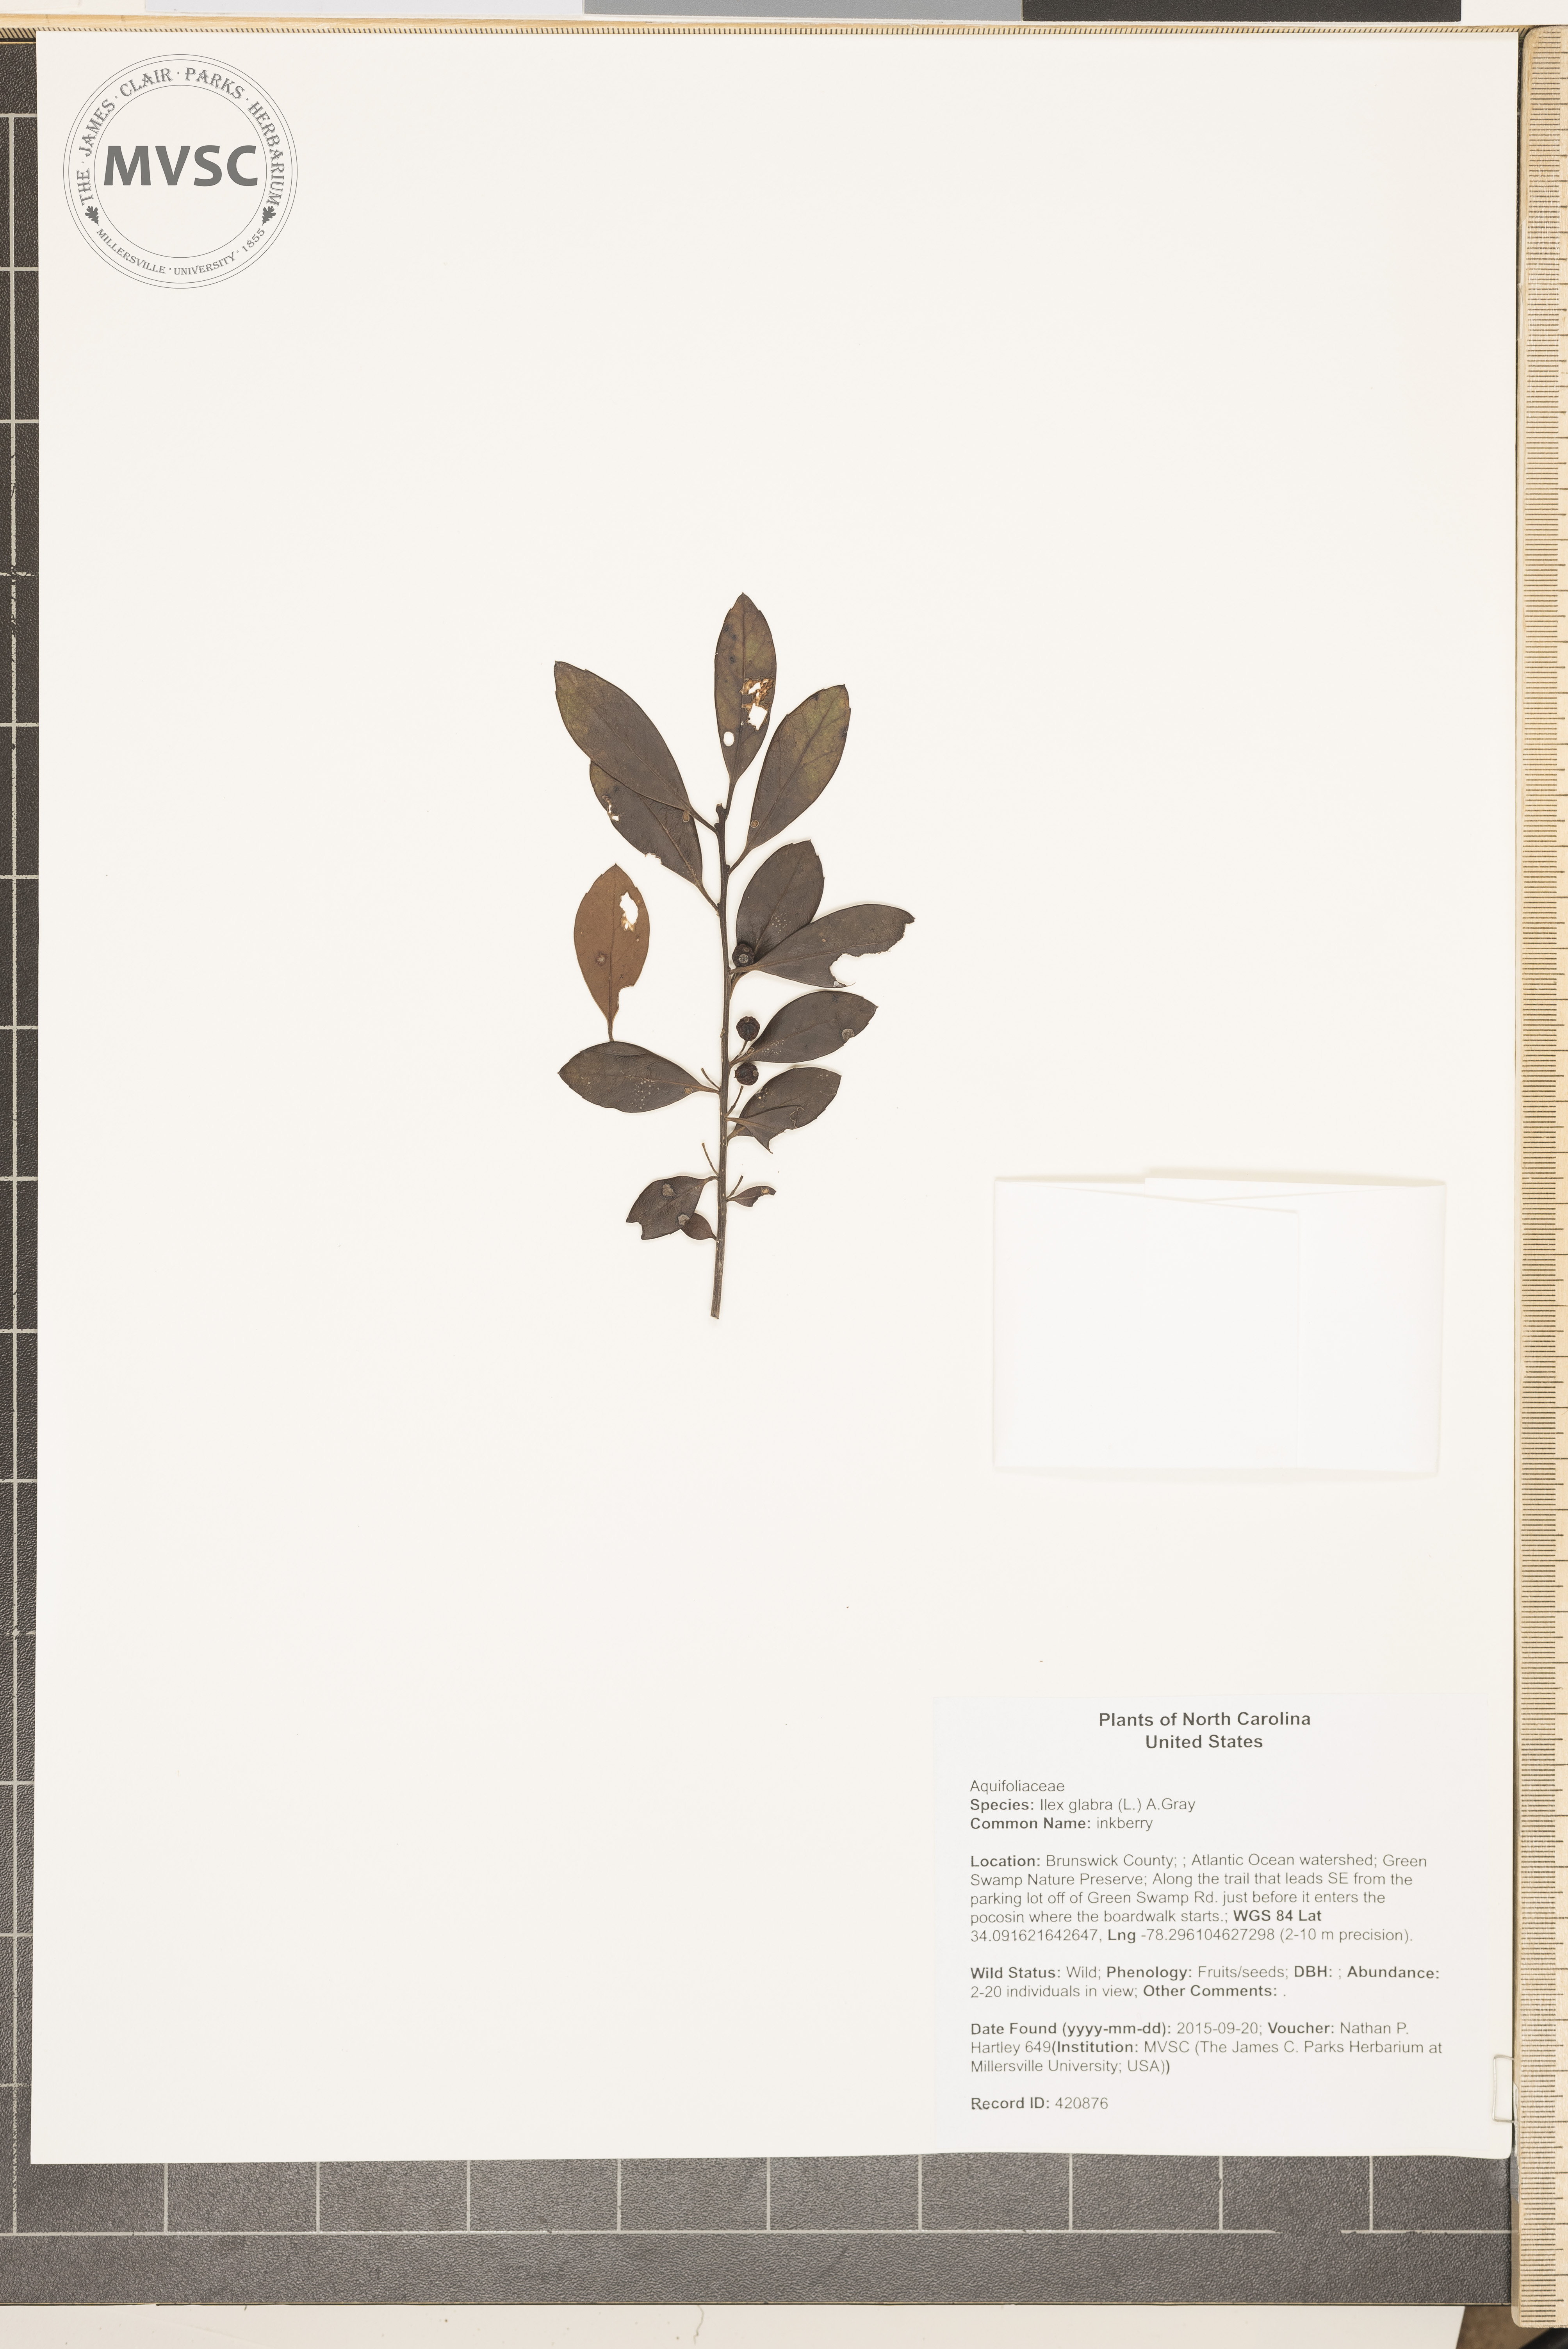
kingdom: Plantae
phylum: Tracheophyta
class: Magnoliopsida
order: Aquifoliales
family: Aquifoliaceae
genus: Ilex
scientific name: Ilex glabra
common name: inkberry
